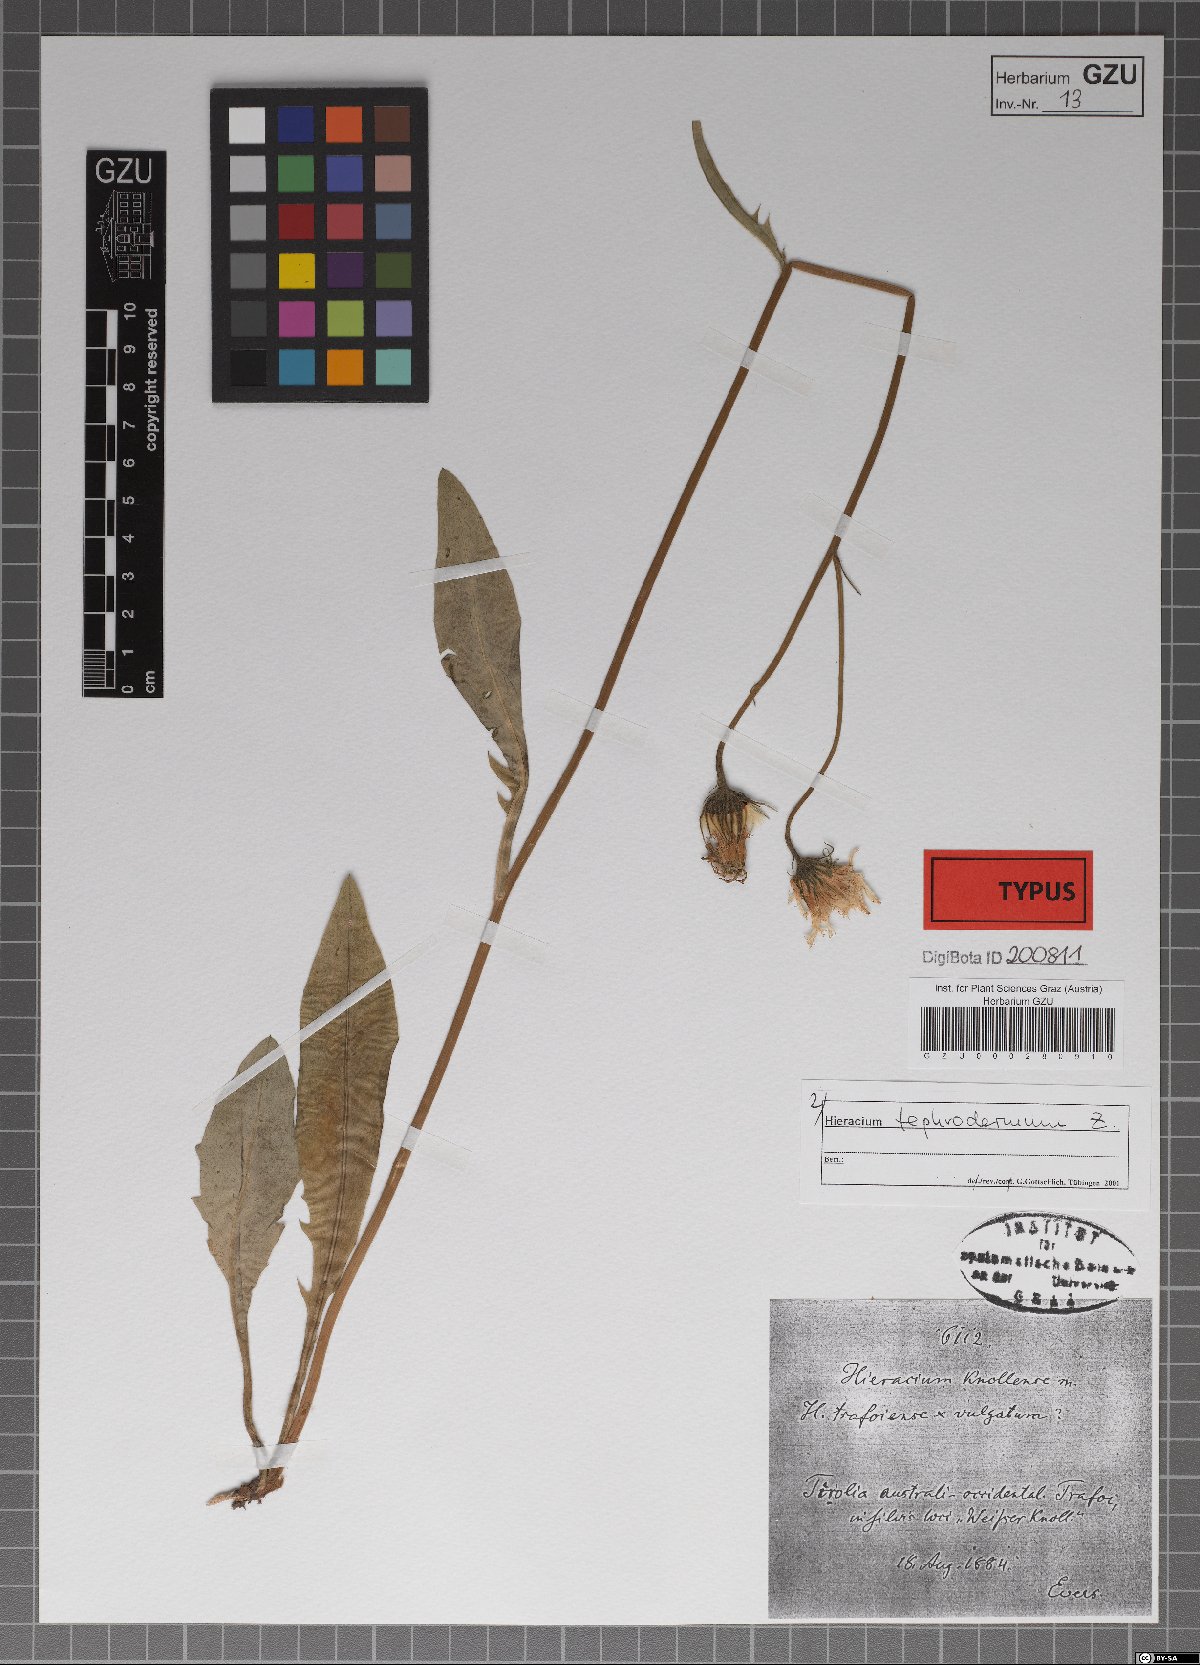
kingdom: Plantae
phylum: Tracheophyta
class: Magnoliopsida
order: Asterales
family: Asteraceae
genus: Hieracium
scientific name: Hieracium knollense
